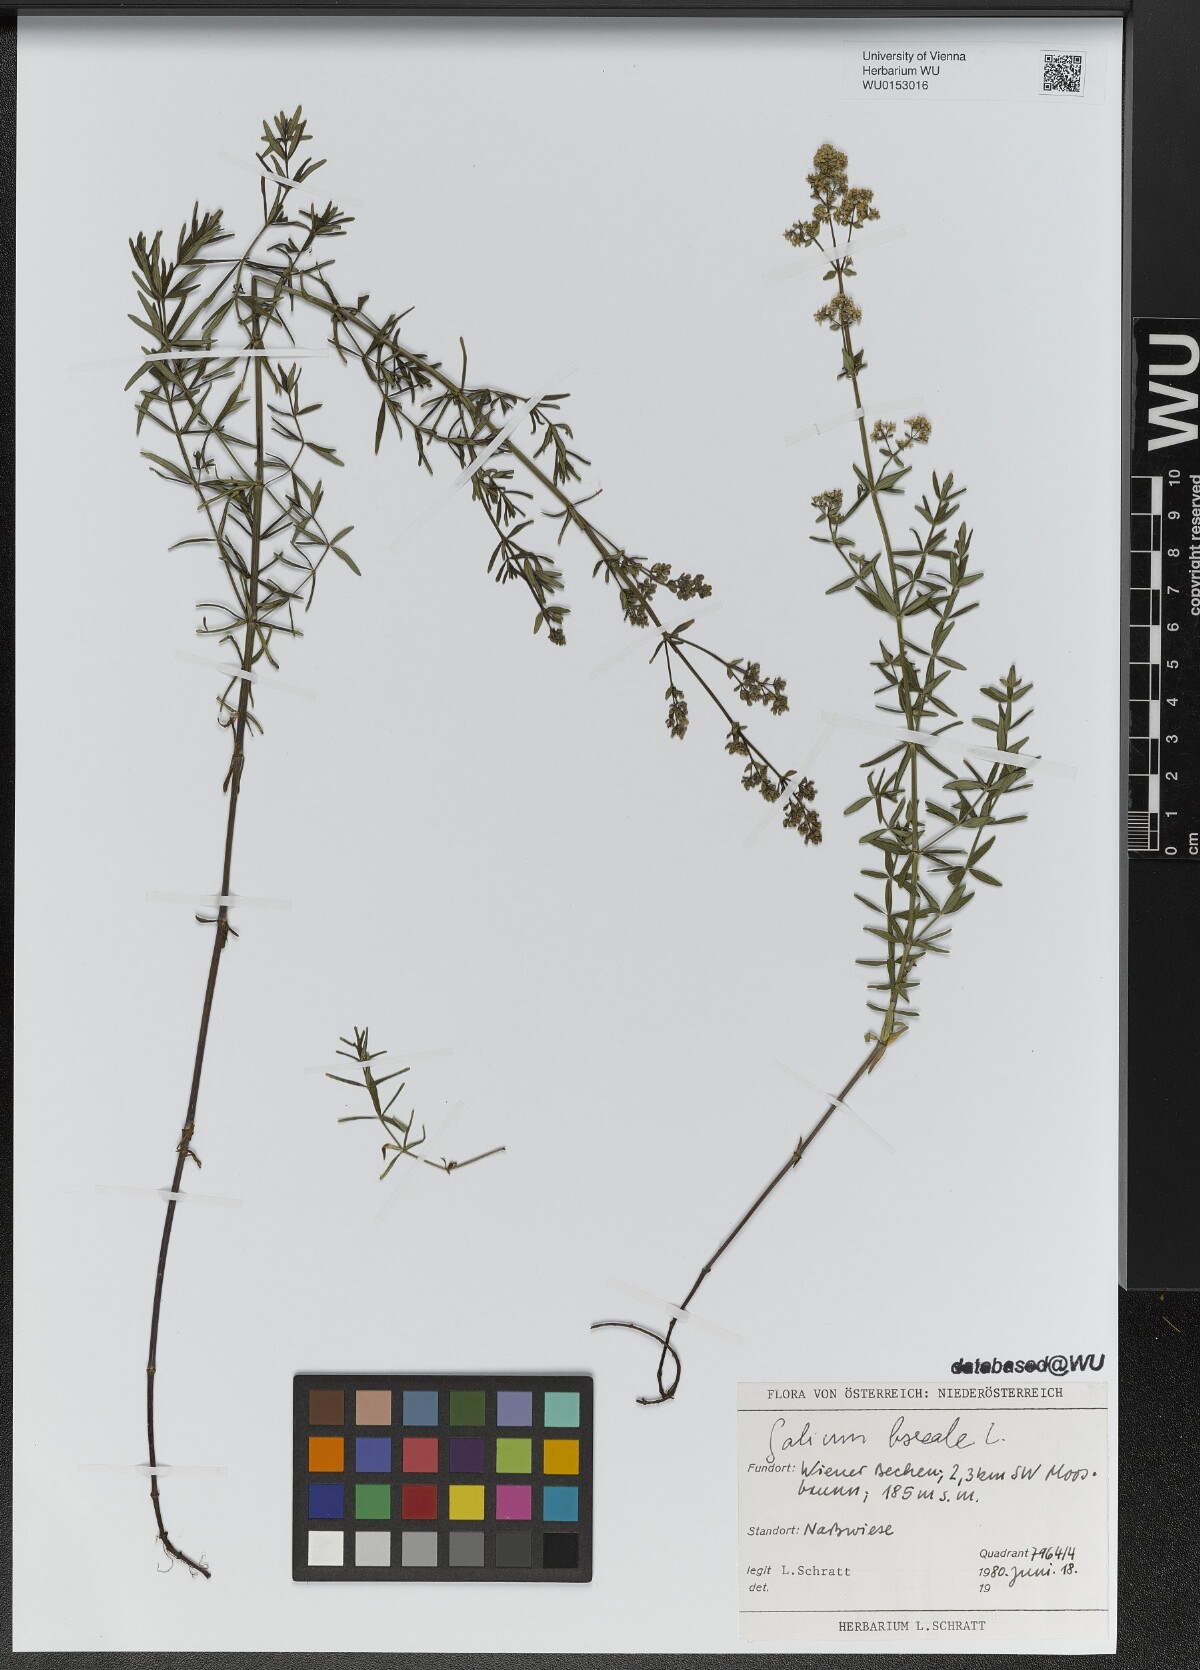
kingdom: Plantae
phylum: Tracheophyta
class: Magnoliopsida
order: Gentianales
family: Rubiaceae
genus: Galium
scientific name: Galium boreale
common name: Northern bedstraw
